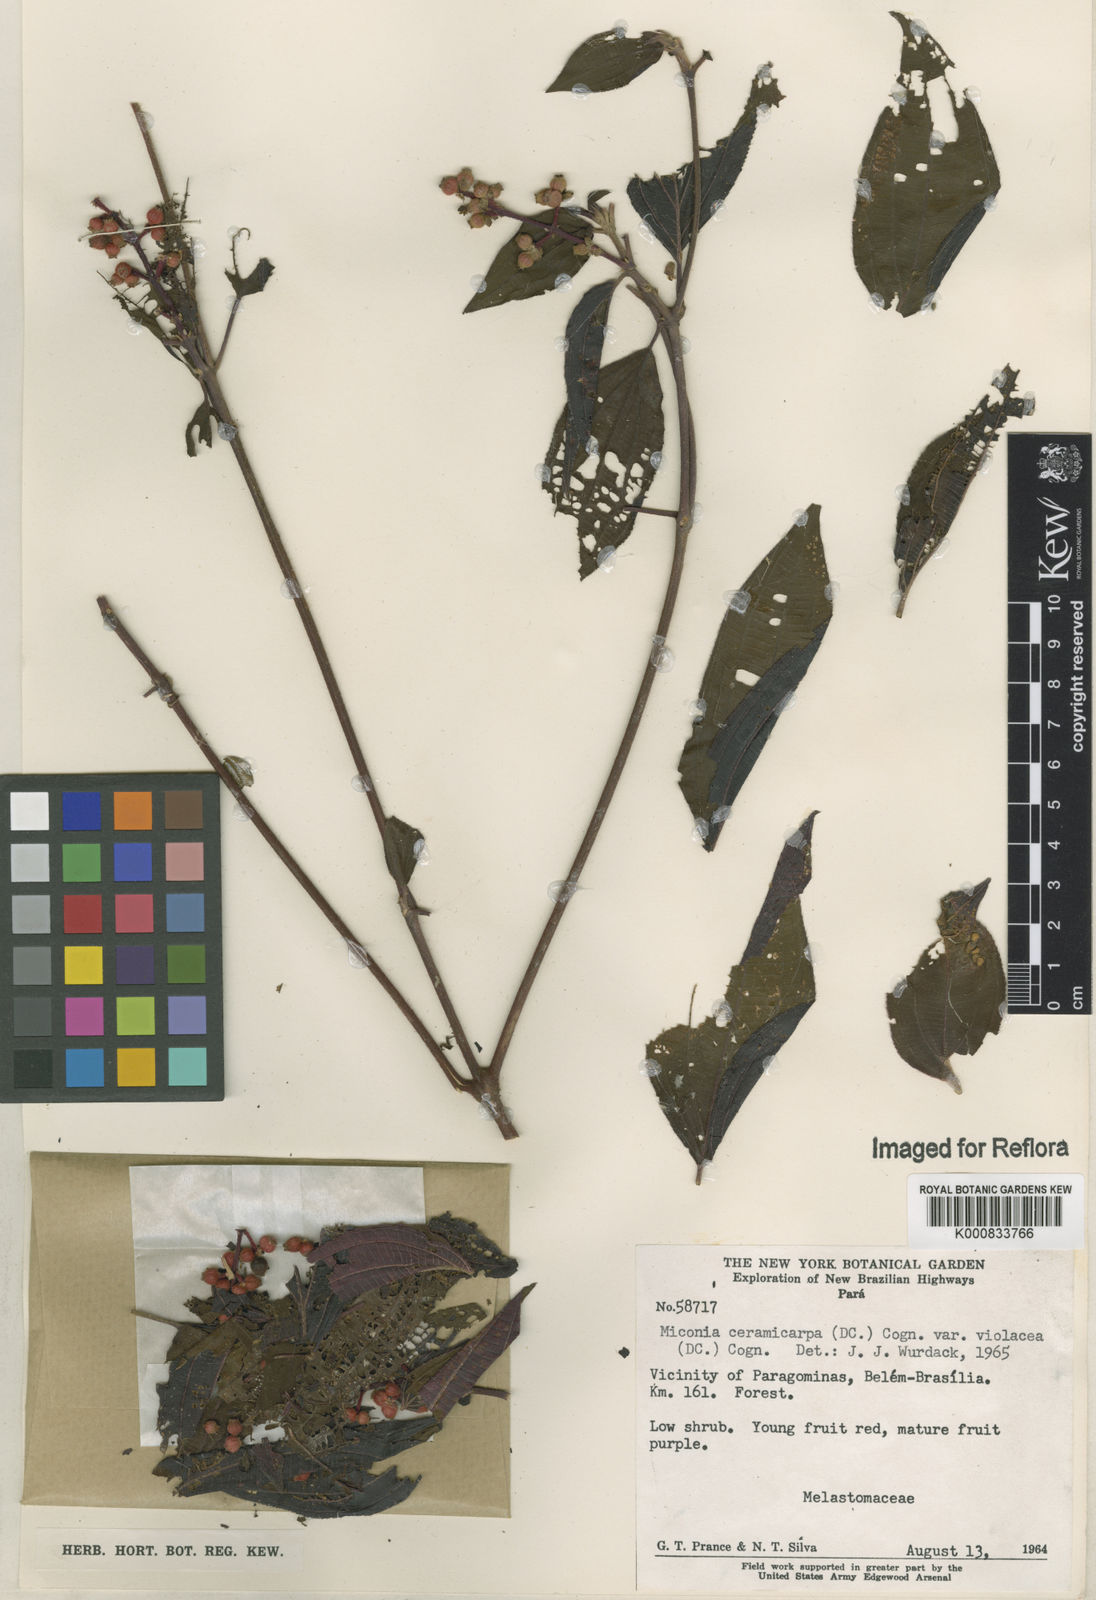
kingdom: Plantae
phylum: Tracheophyta
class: Magnoliopsida
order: Myrtales
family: Melastomataceae
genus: Miconia
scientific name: Miconia ceramicarpa
